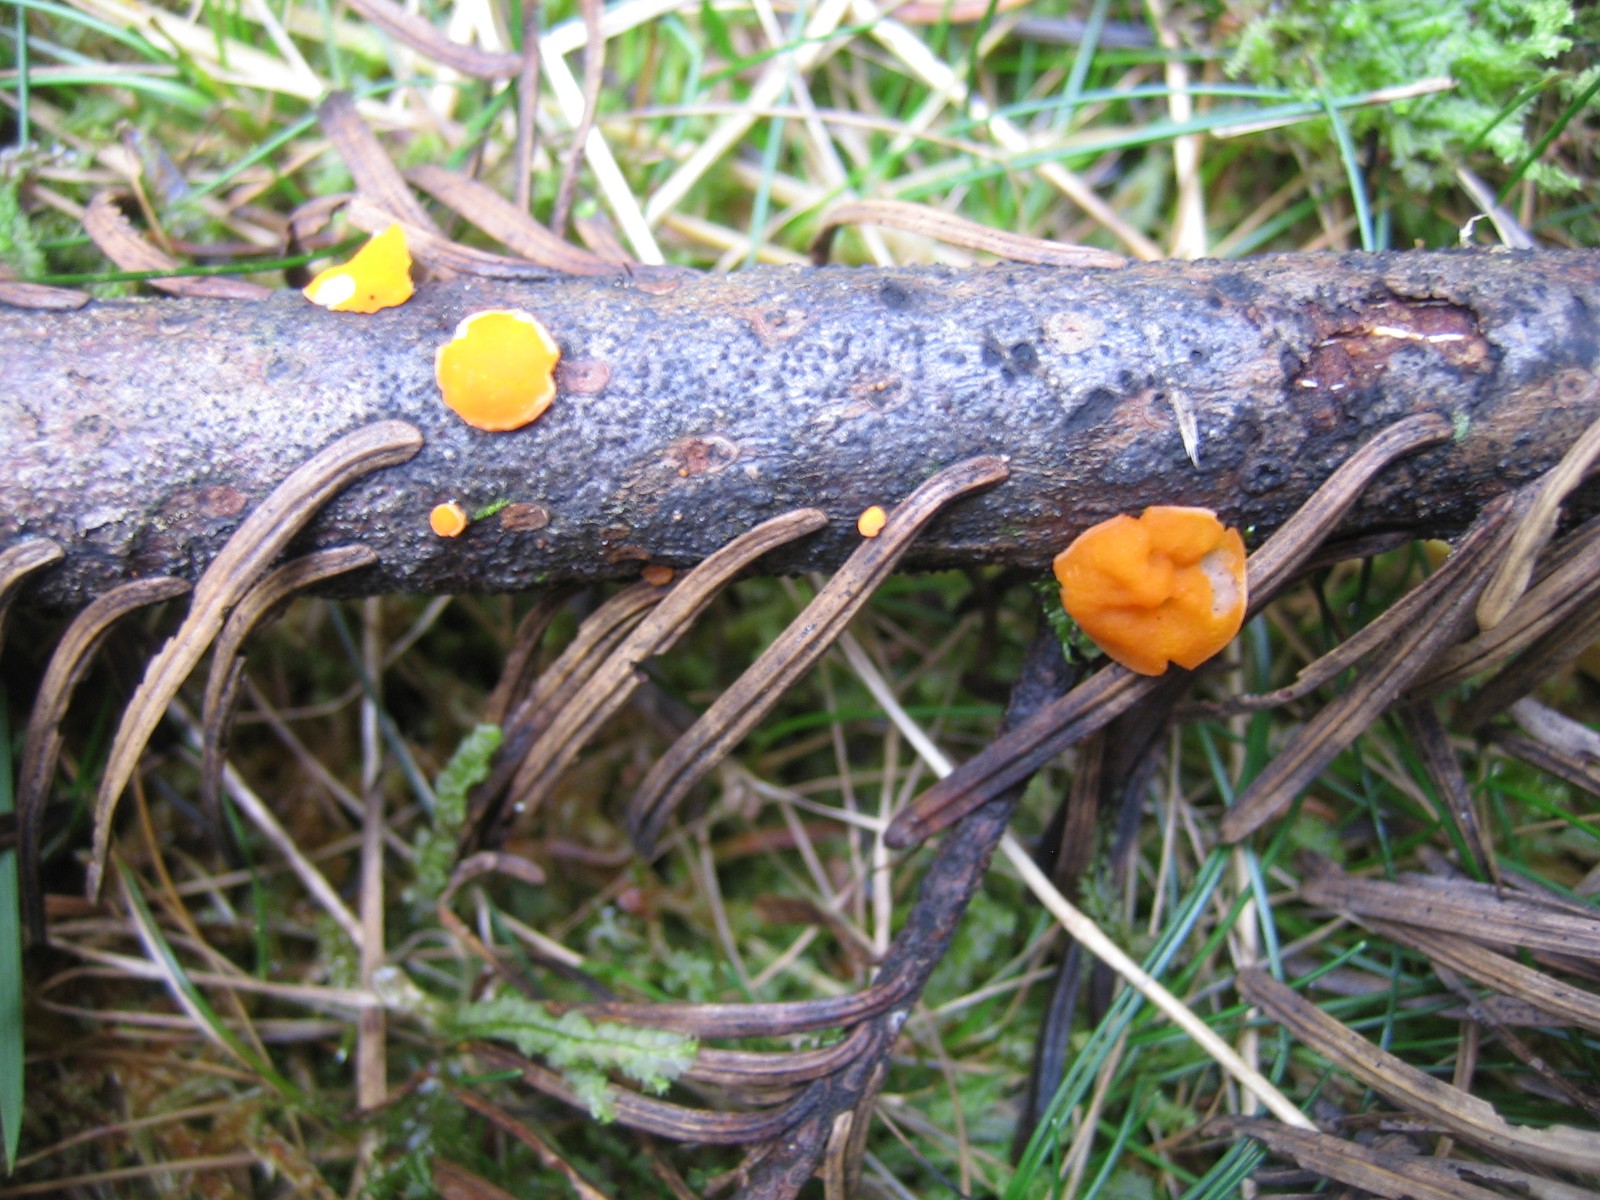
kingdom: Fungi
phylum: Ascomycota
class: Pezizomycetes
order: Pezizales
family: Sarcoscyphaceae
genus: Pithya
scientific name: Pithya vulgaris
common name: stor dukatbæger
